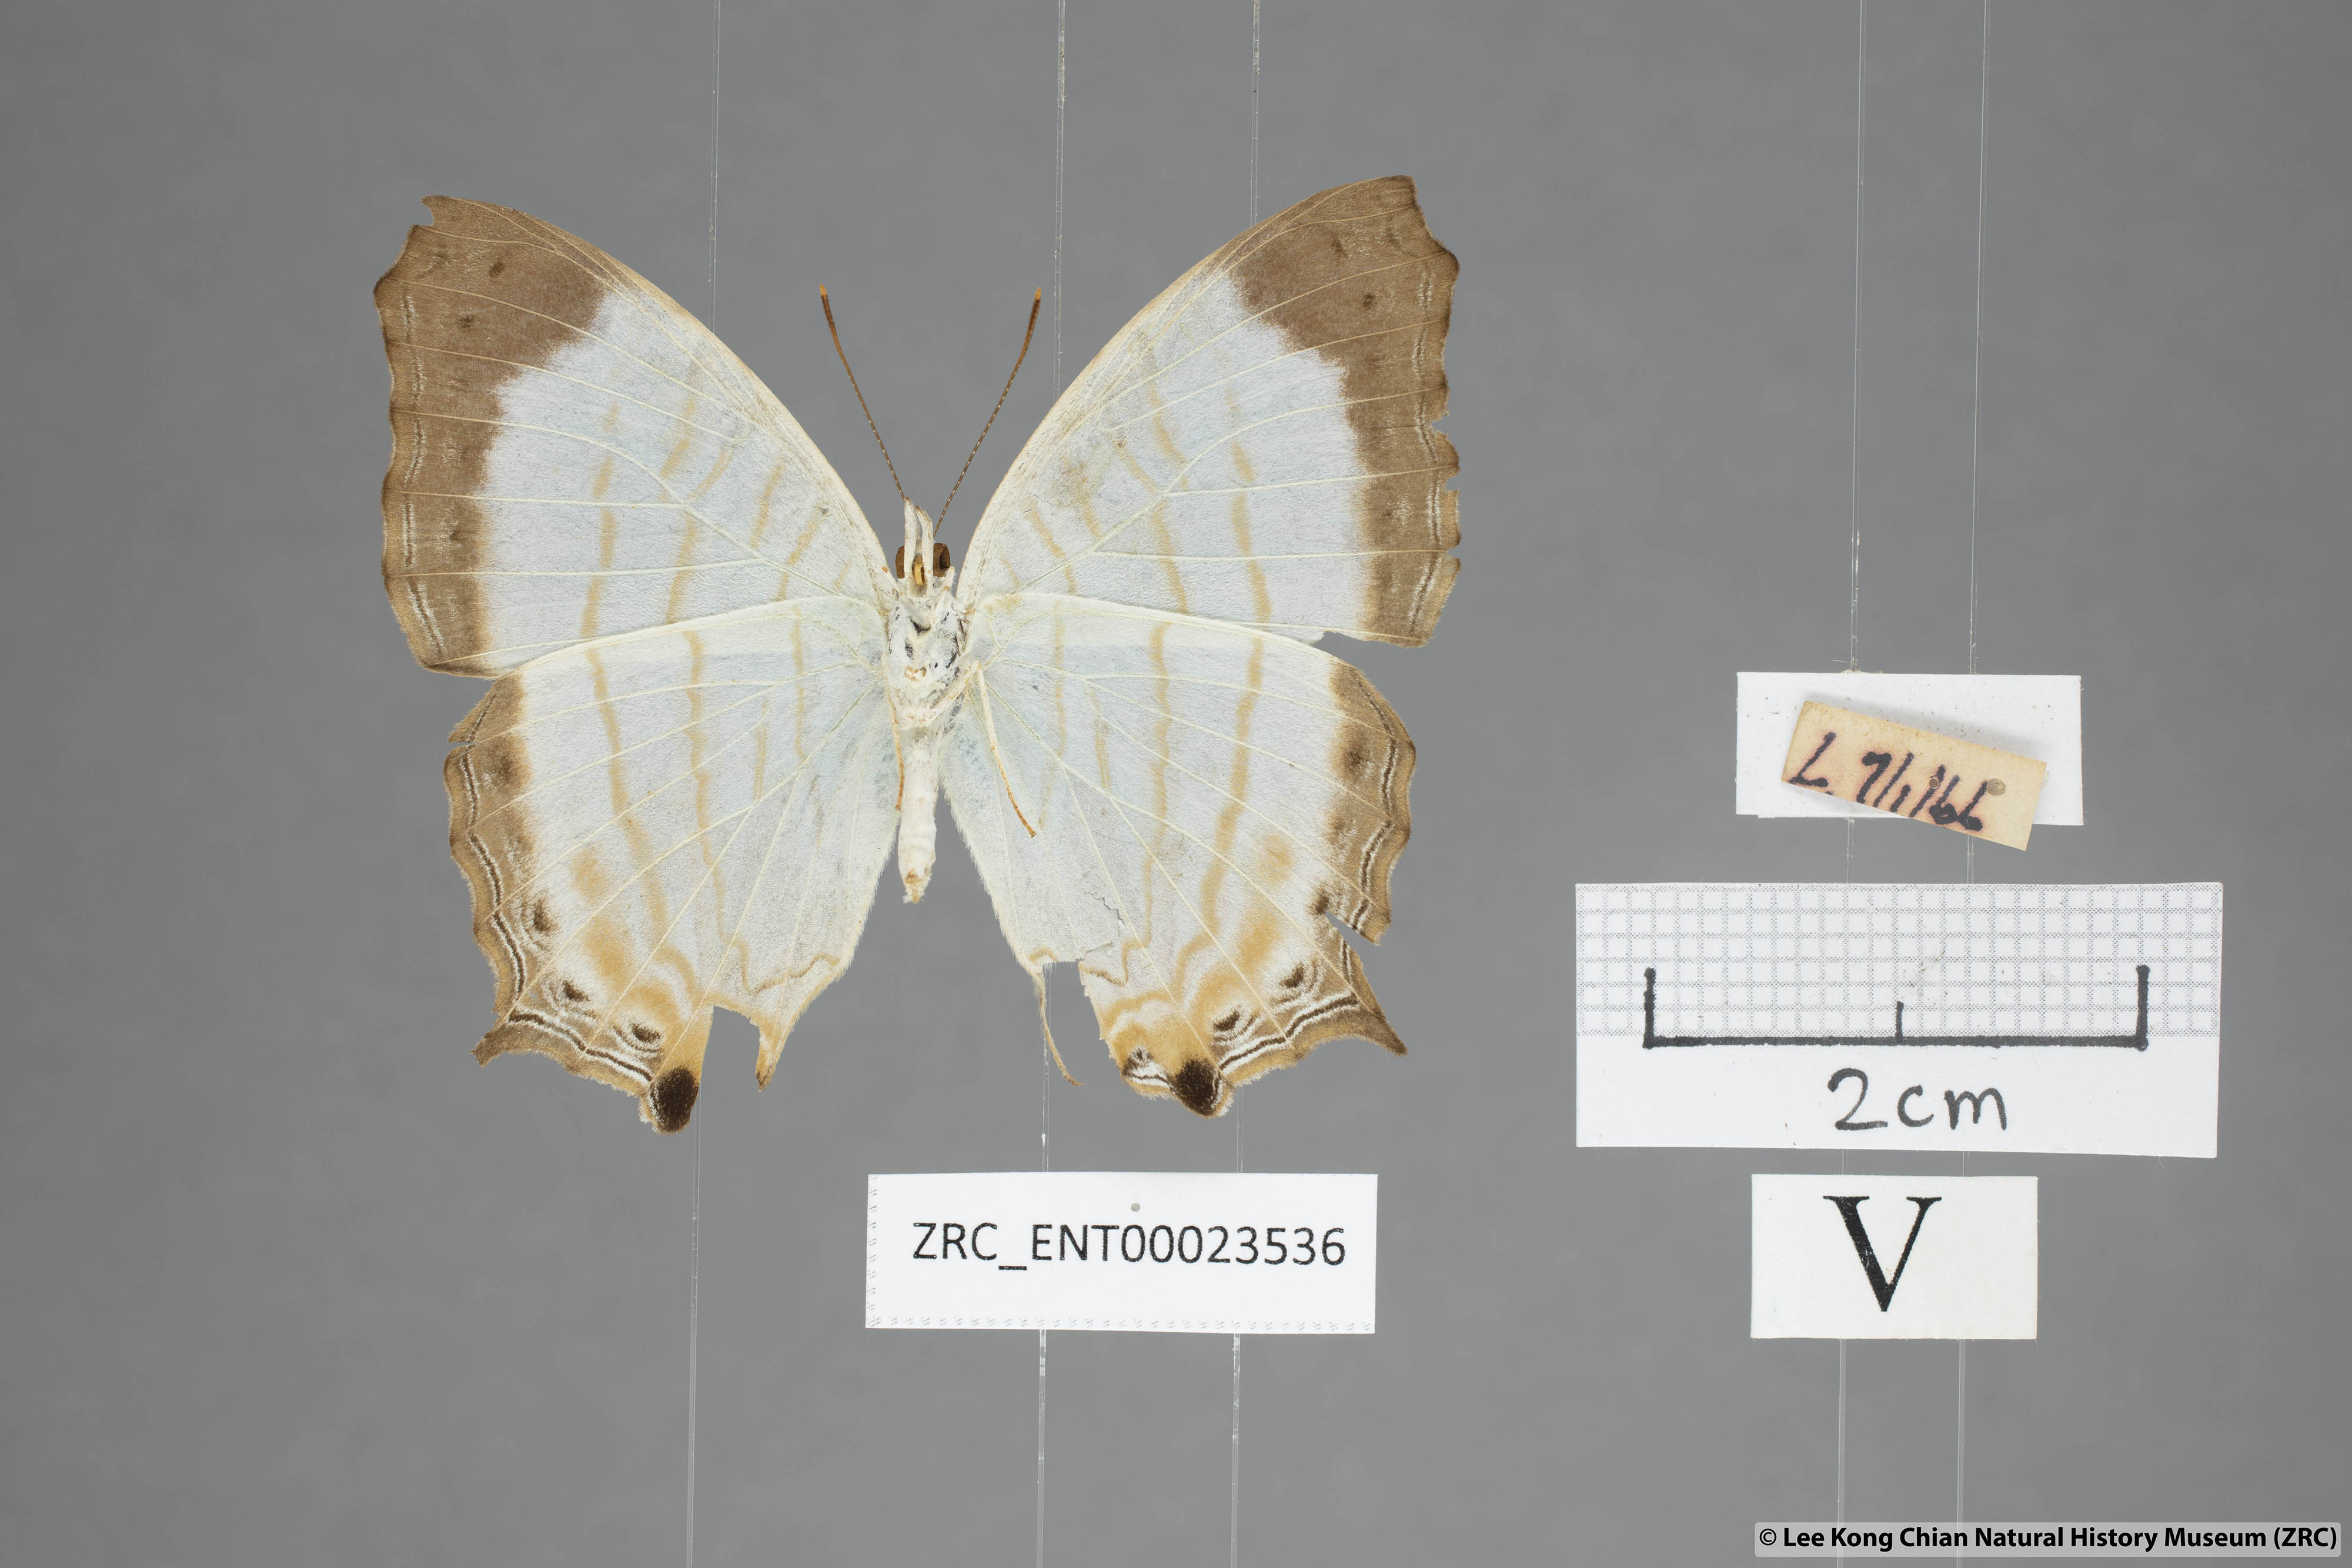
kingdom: Animalia
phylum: Arthropoda
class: Insecta
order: Lepidoptera
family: Nymphalidae
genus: Cyrestis
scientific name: Cyrestis themire
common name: Little mapwing
